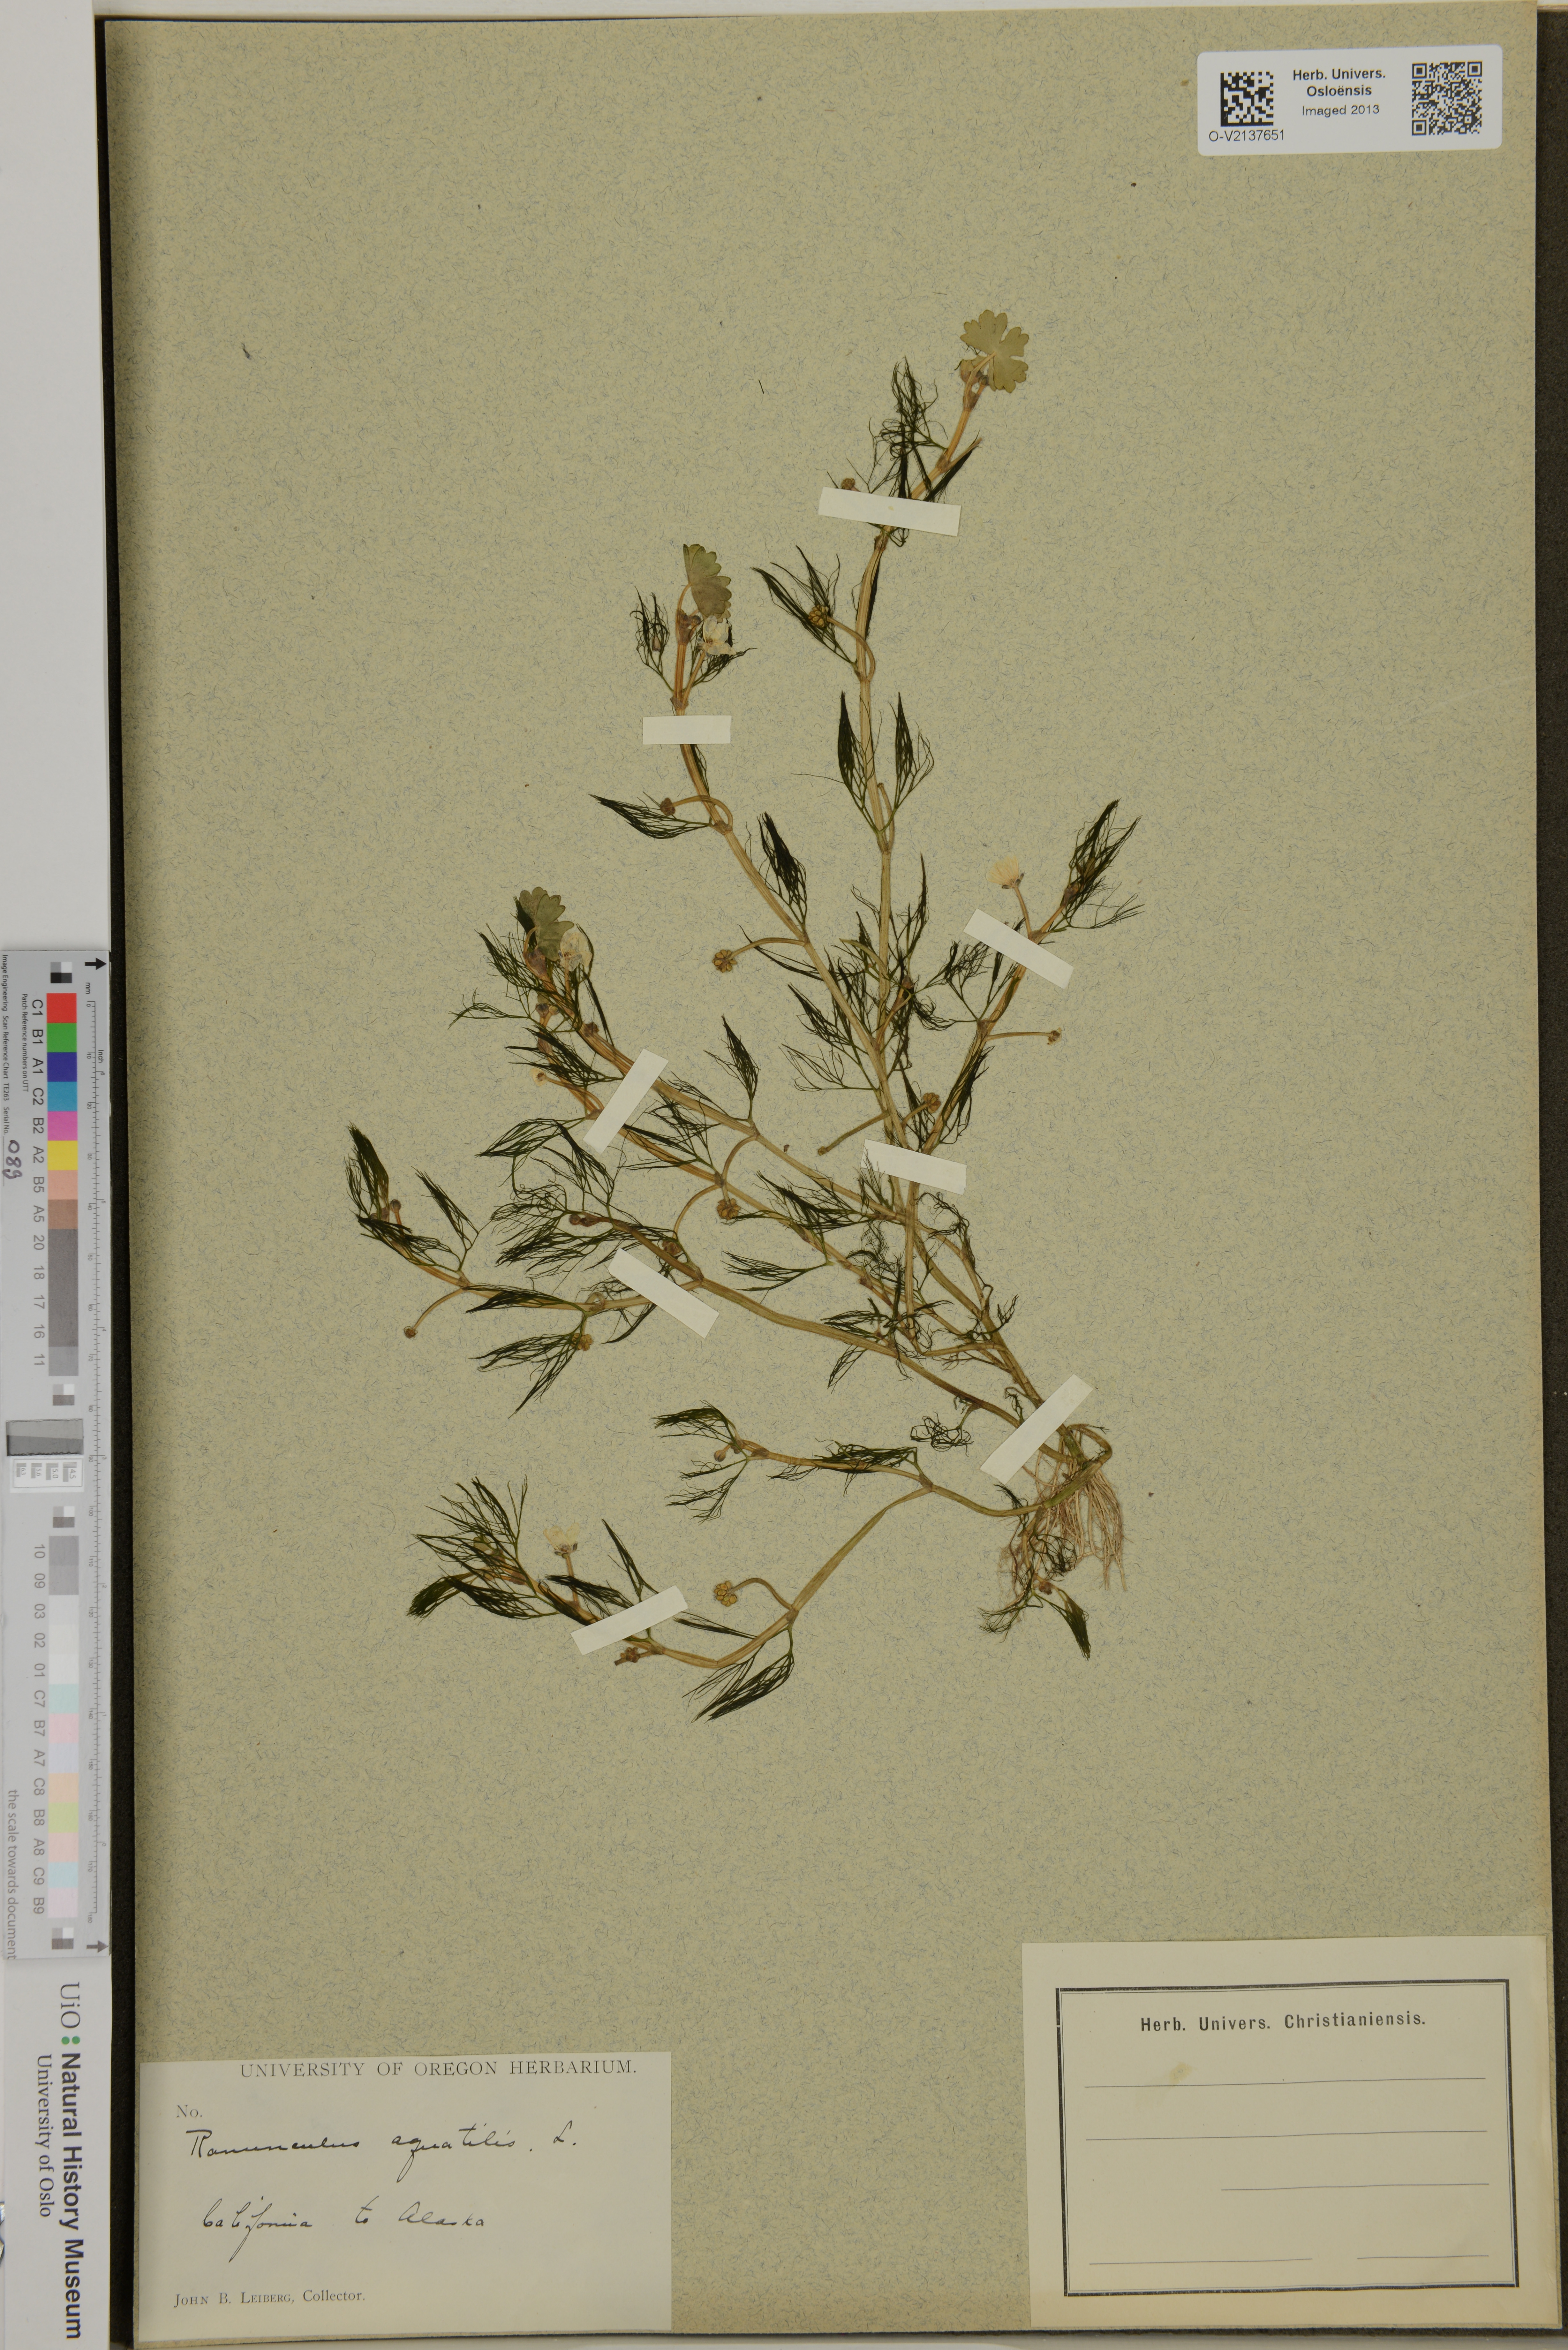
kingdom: Plantae
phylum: Tracheophyta
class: Magnoliopsida
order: Ranunculales
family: Ranunculaceae
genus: Ranunculus
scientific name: Ranunculus aquatilis
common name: Common water-crowfoot
